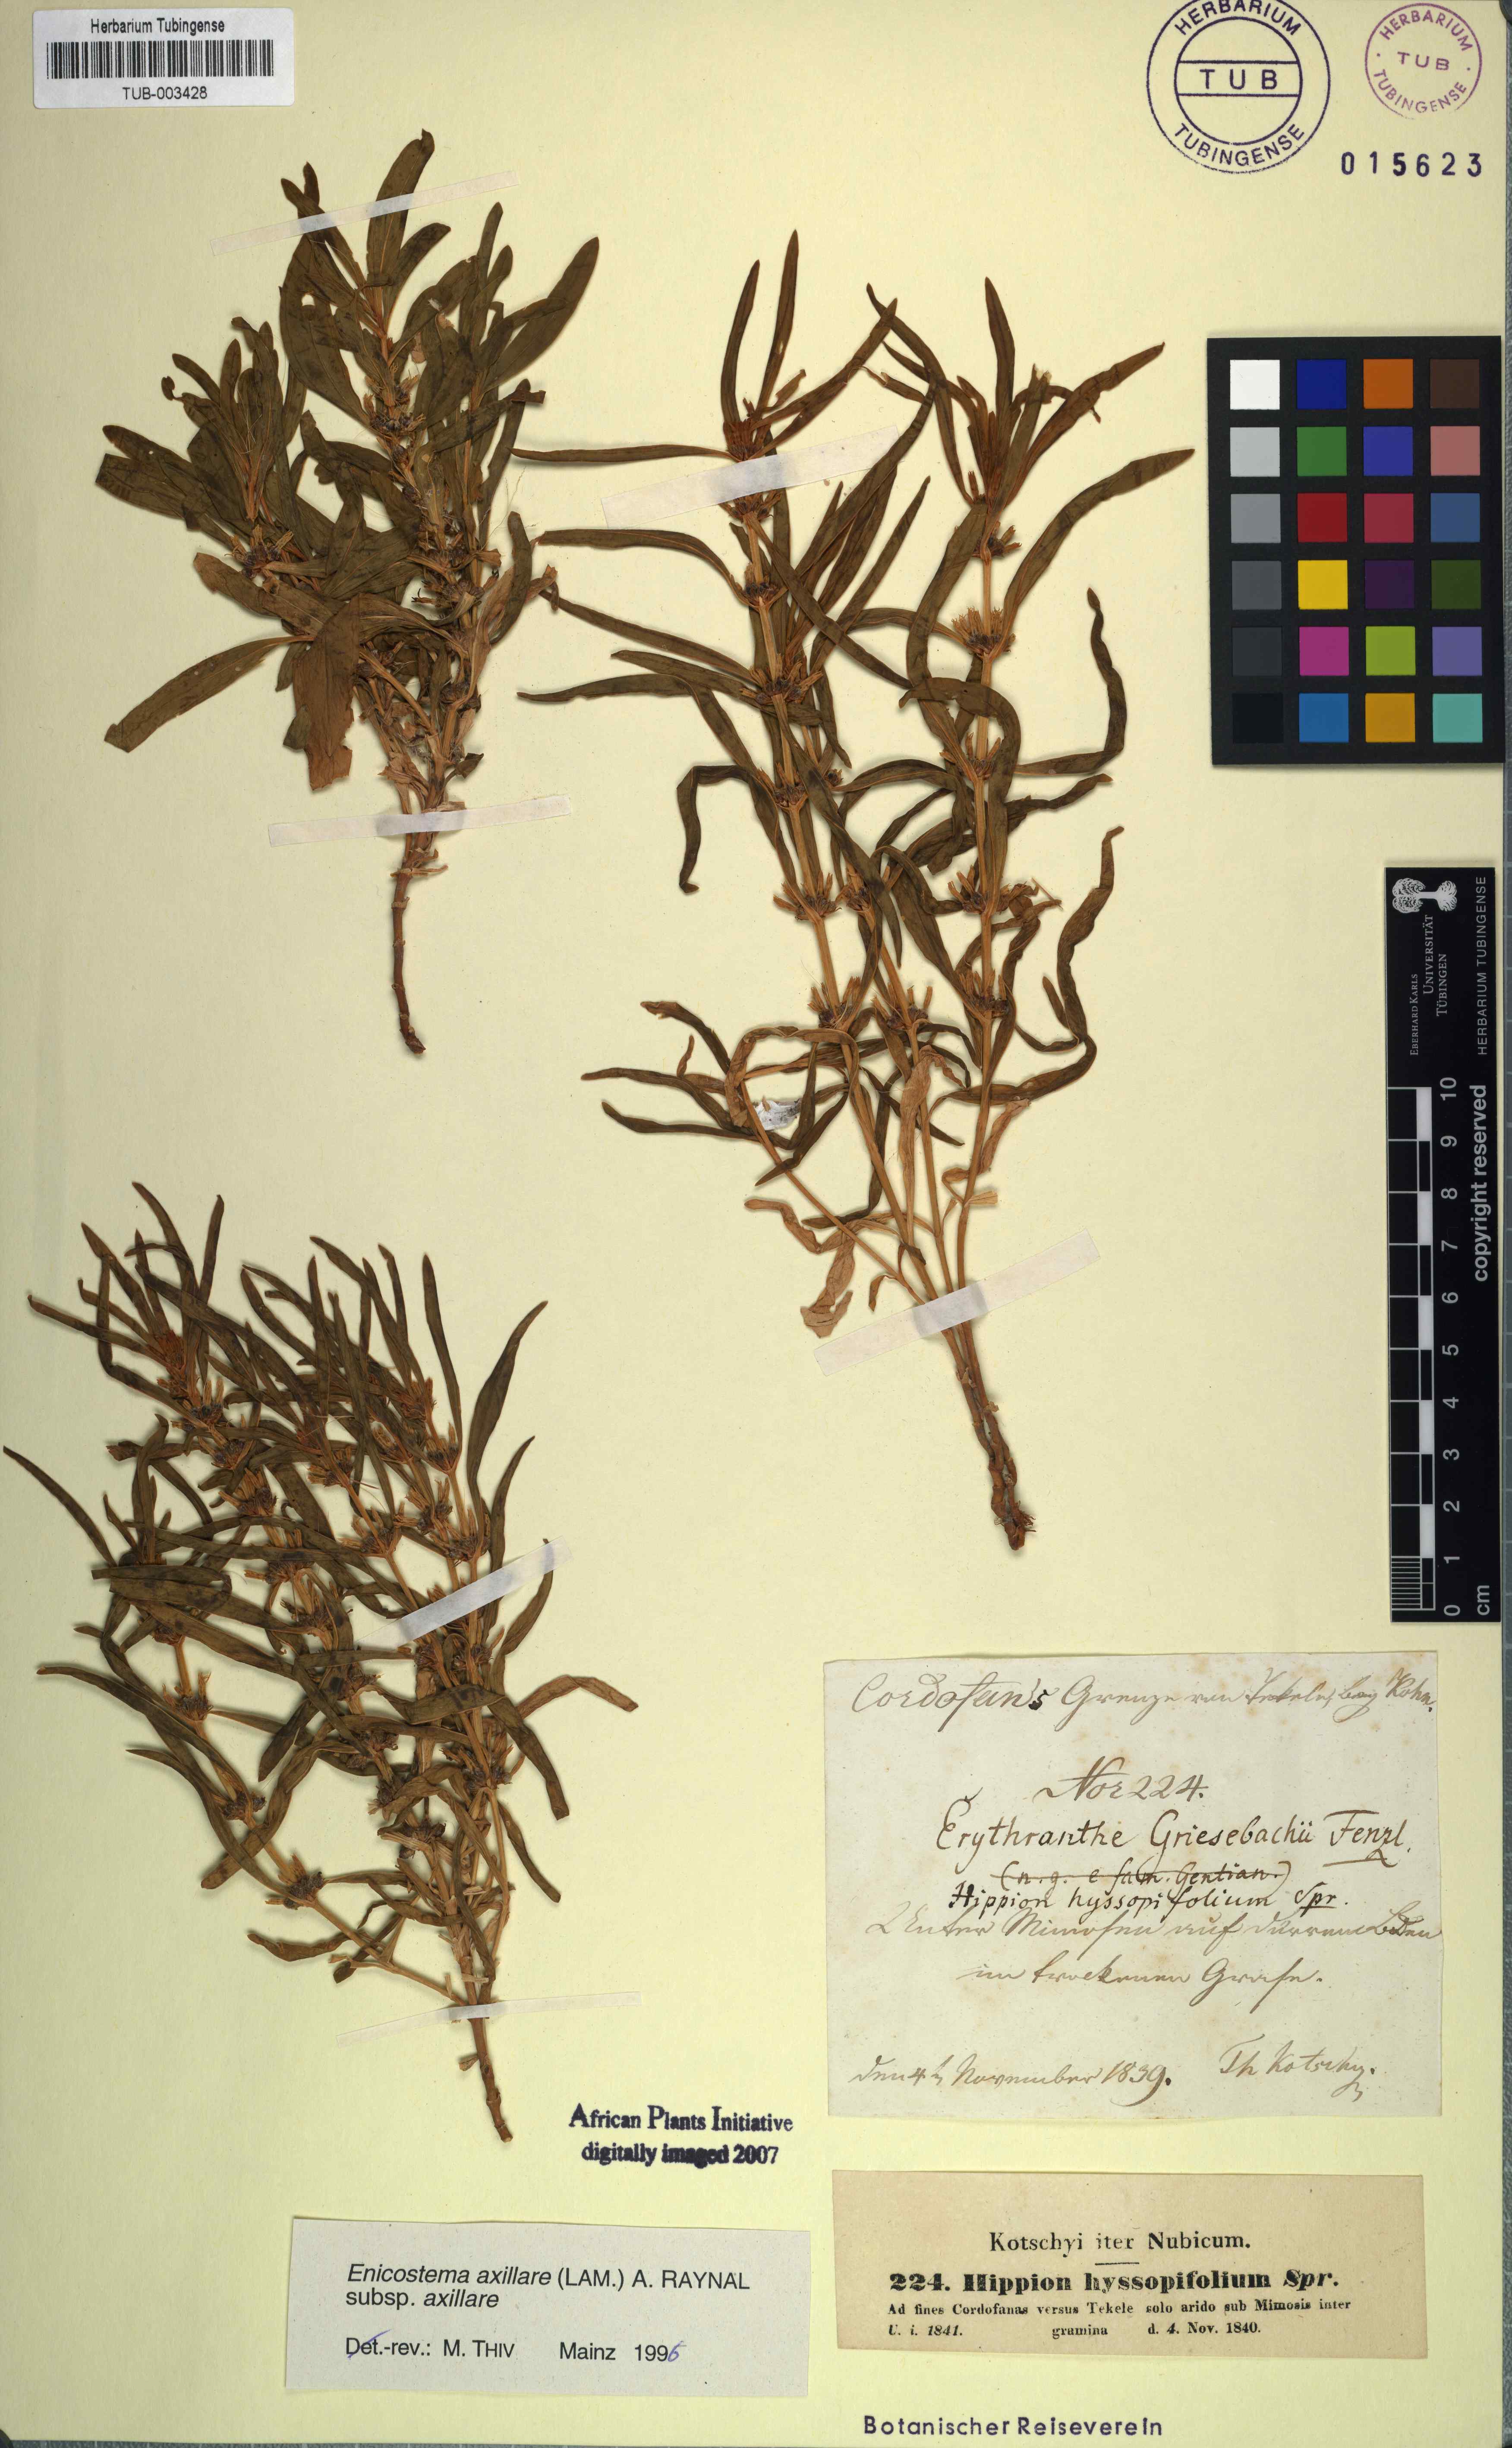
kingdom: Plantae
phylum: Tracheophyta
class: Magnoliopsida
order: Gentianales
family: Gentianaceae
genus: Enicostema
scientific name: Enicostema axillare
